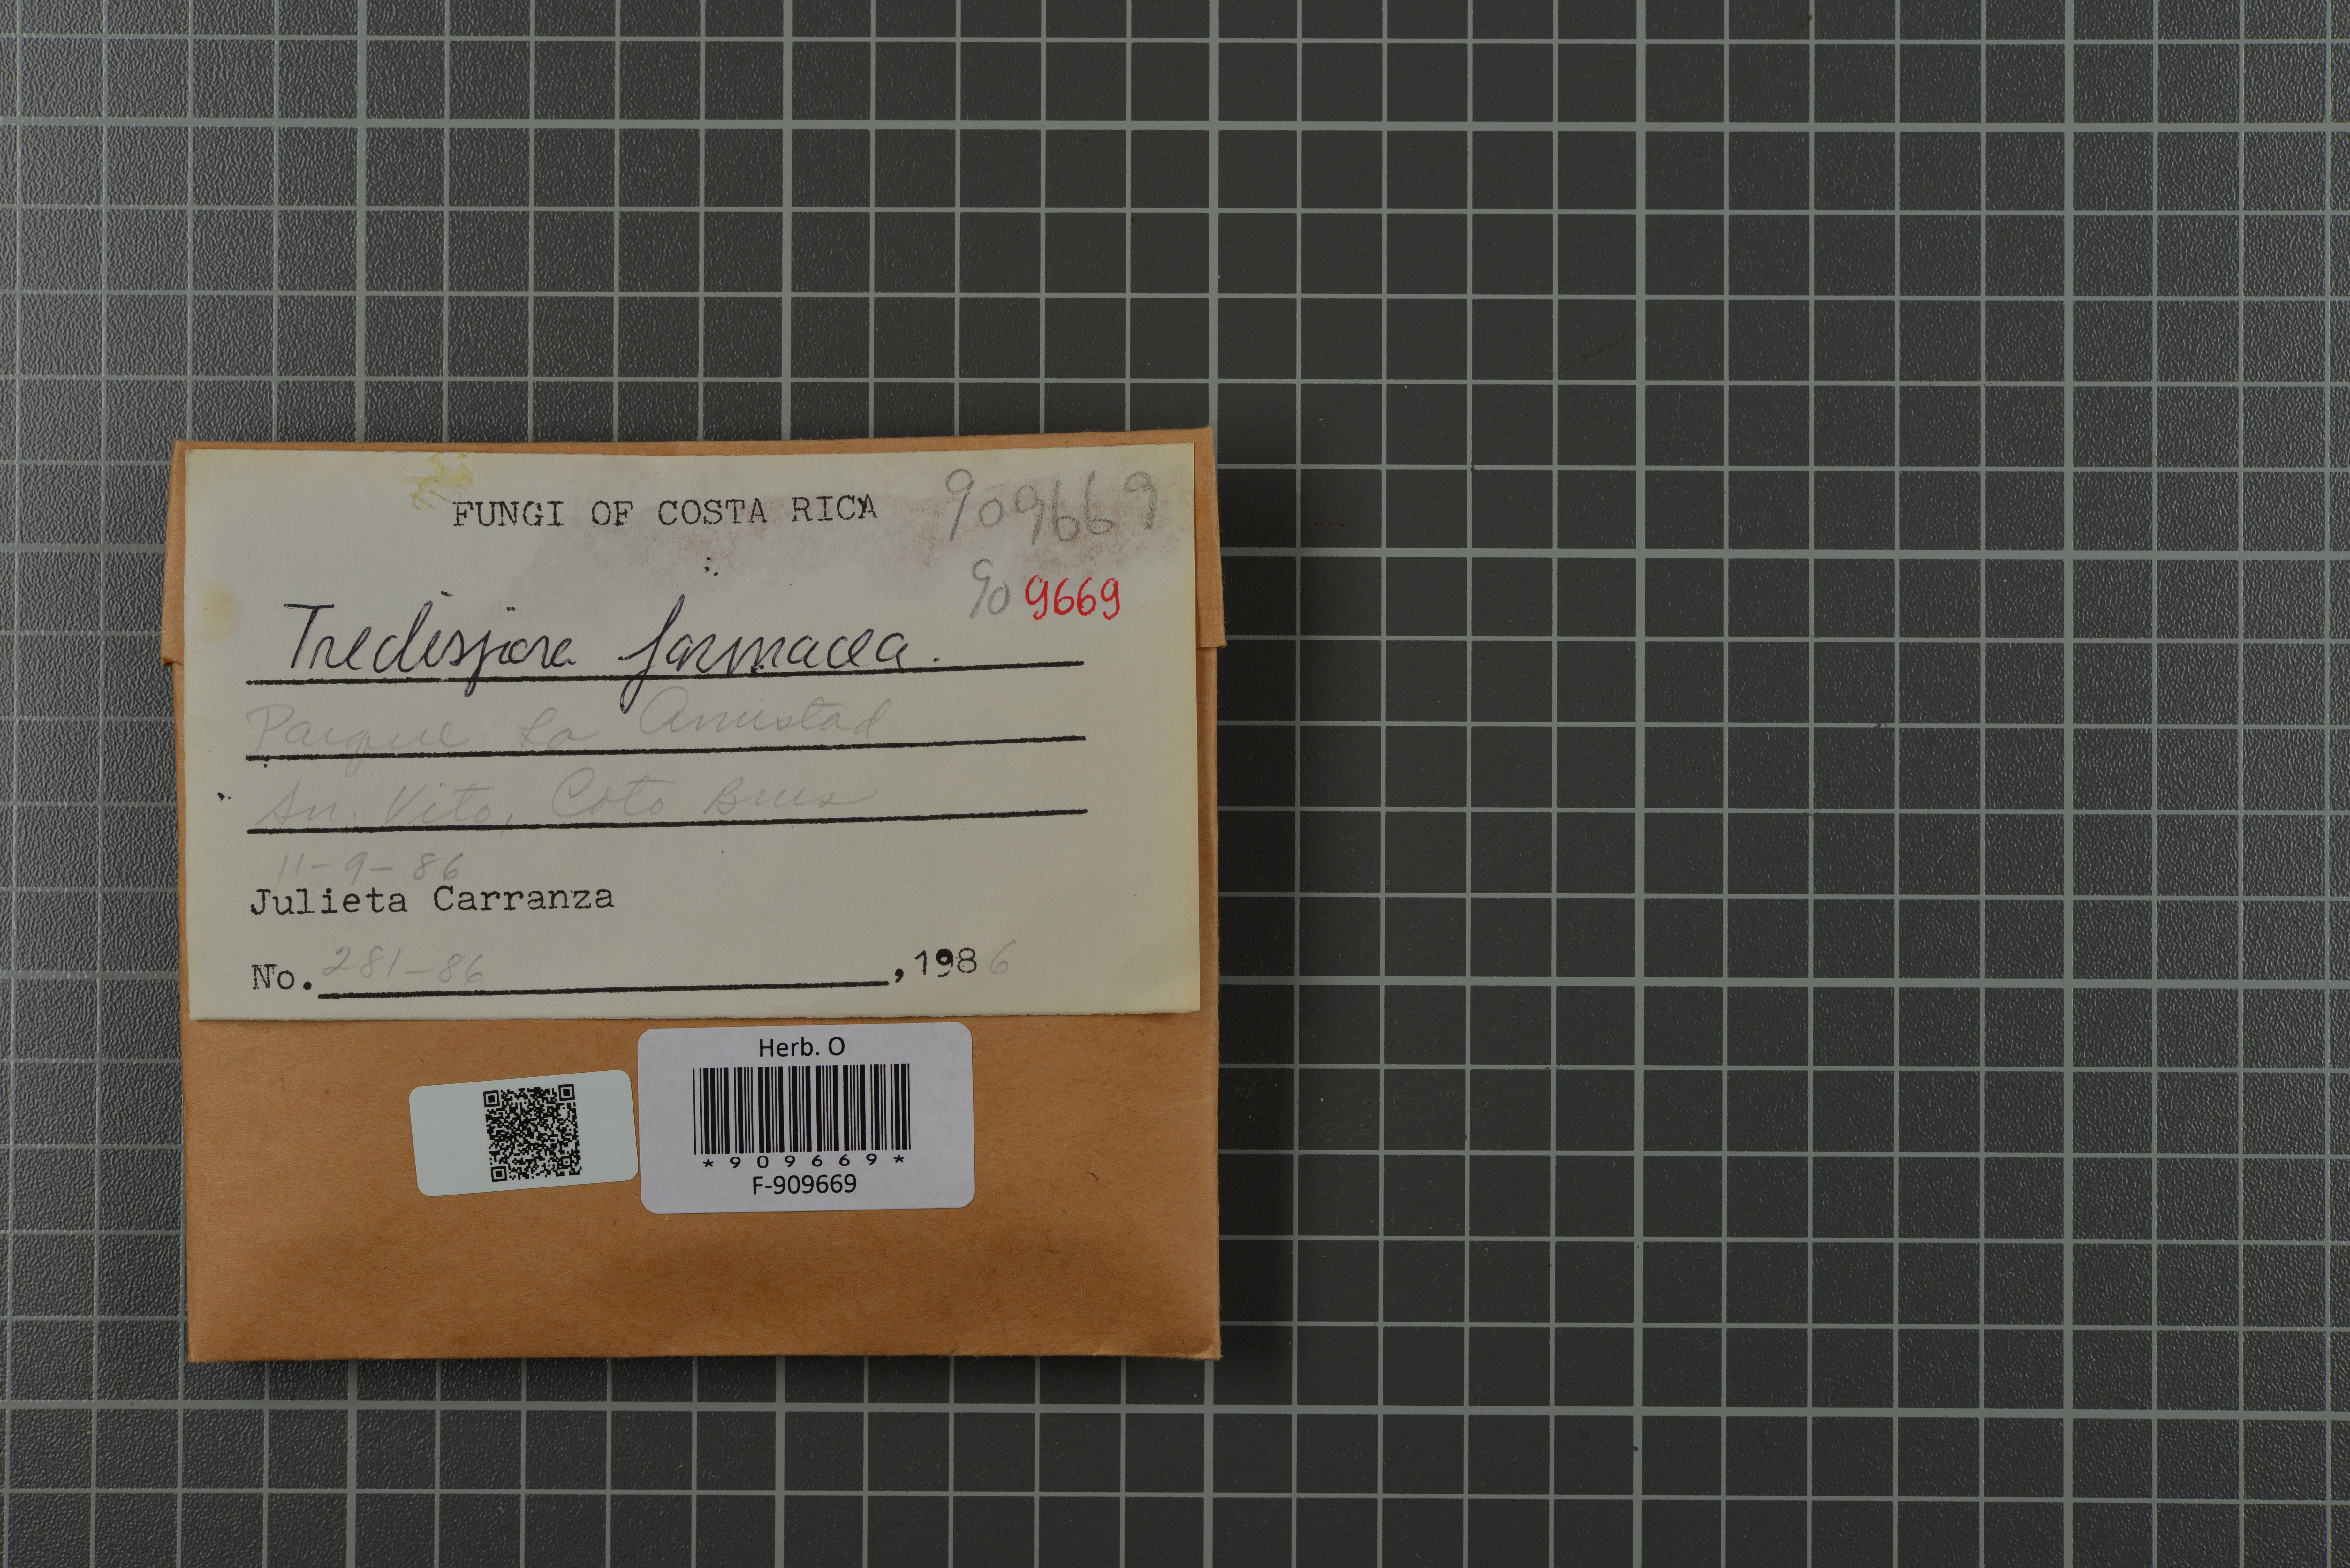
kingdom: Fungi
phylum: Basidiomycota
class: Agaricomycetes
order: Trechisporales
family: Sistotremataceae
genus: Trechispora
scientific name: Trechispora farinacea
